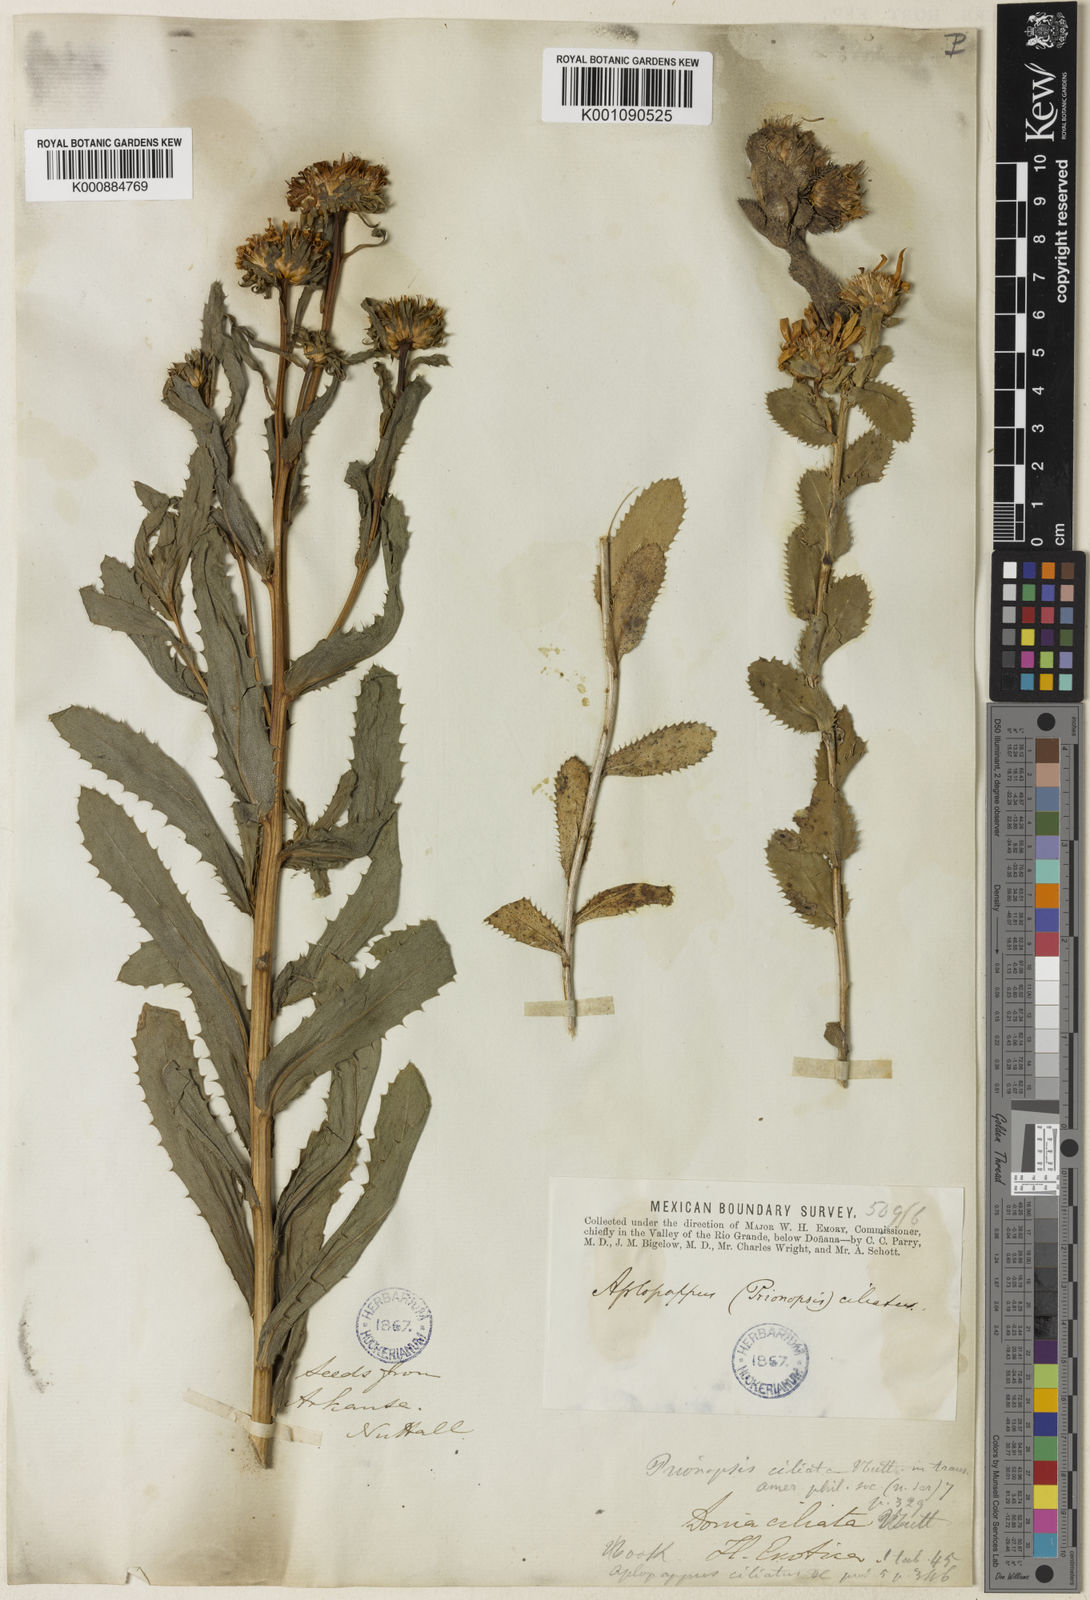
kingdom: Plantae
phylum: Tracheophyta
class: Magnoliopsida
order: Asterales
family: Asteraceae
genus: Grindelia
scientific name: Grindelia ciliata
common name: Goldenweed
